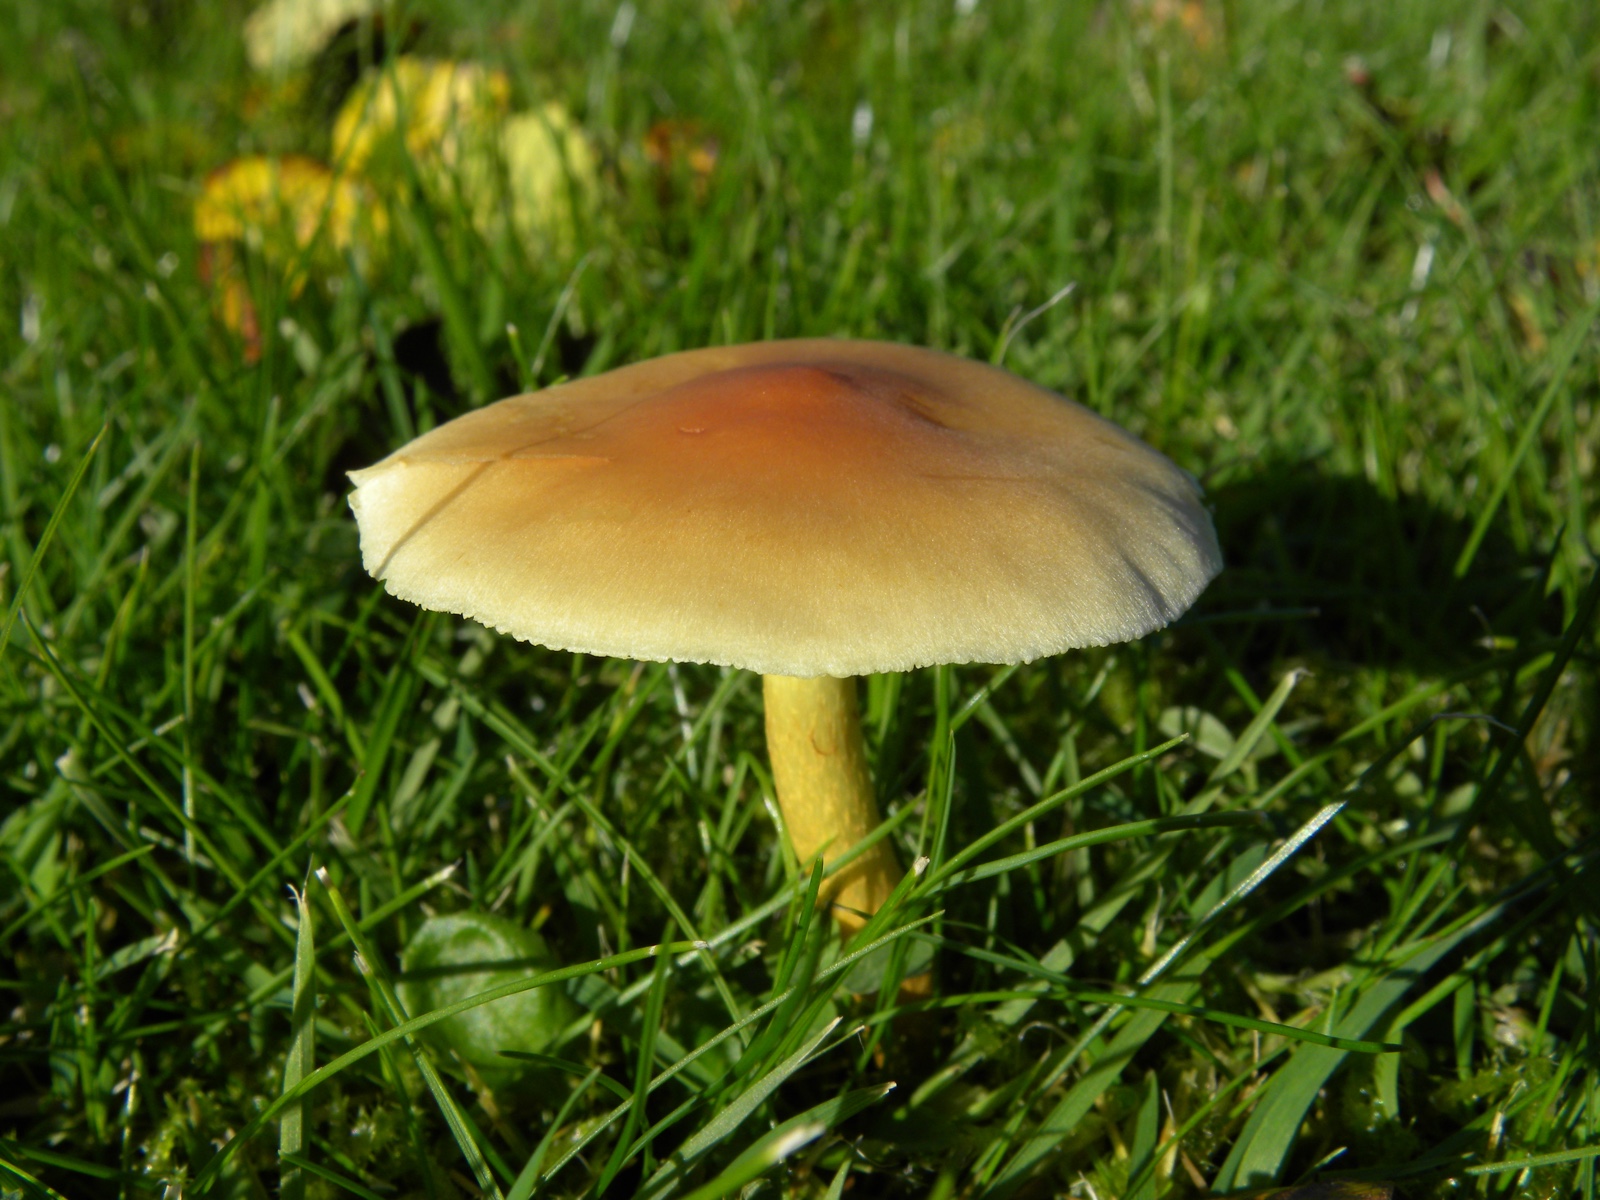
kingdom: Fungi
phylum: Basidiomycota
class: Agaricomycetes
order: Agaricales
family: Strophariaceae
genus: Hypholoma
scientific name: Hypholoma fasciculare
